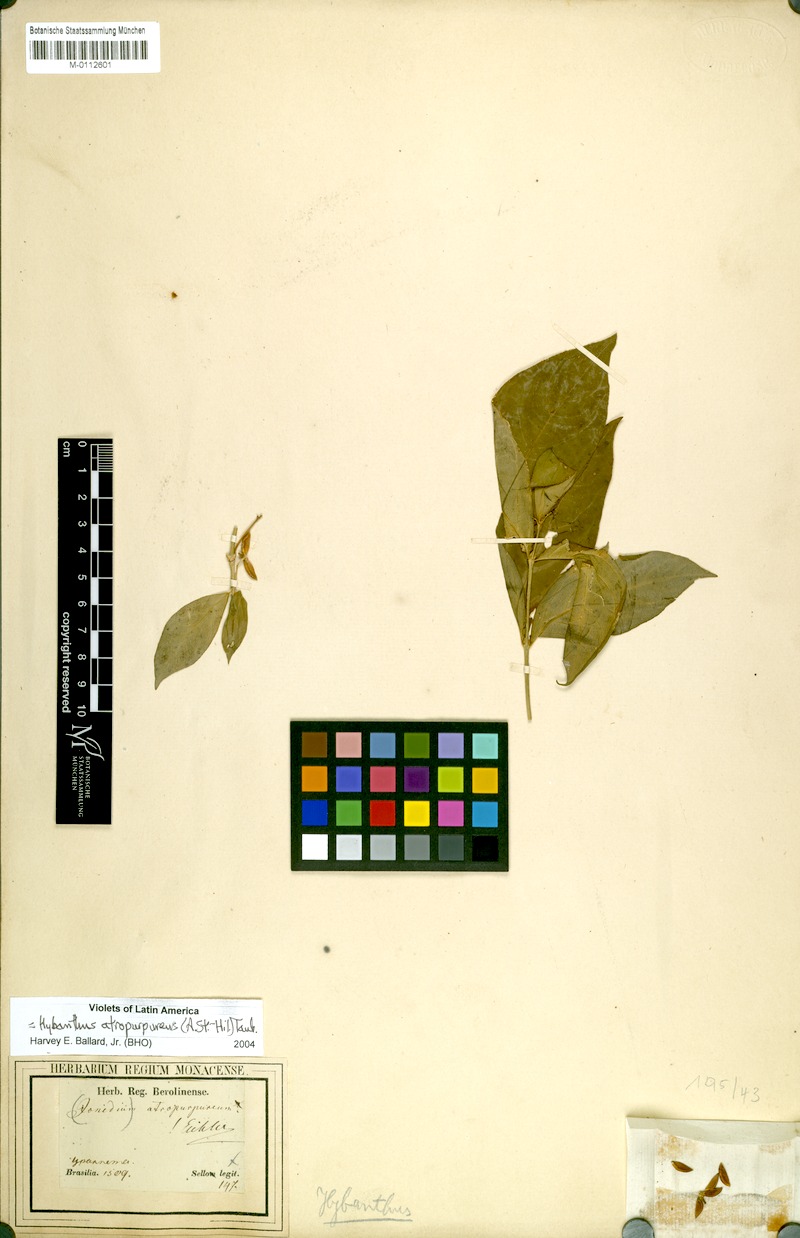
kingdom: Plantae
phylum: Tracheophyta
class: Magnoliopsida
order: Malpighiales
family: Violaceae
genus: Pombalia
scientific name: Pombalia atropurpurea
